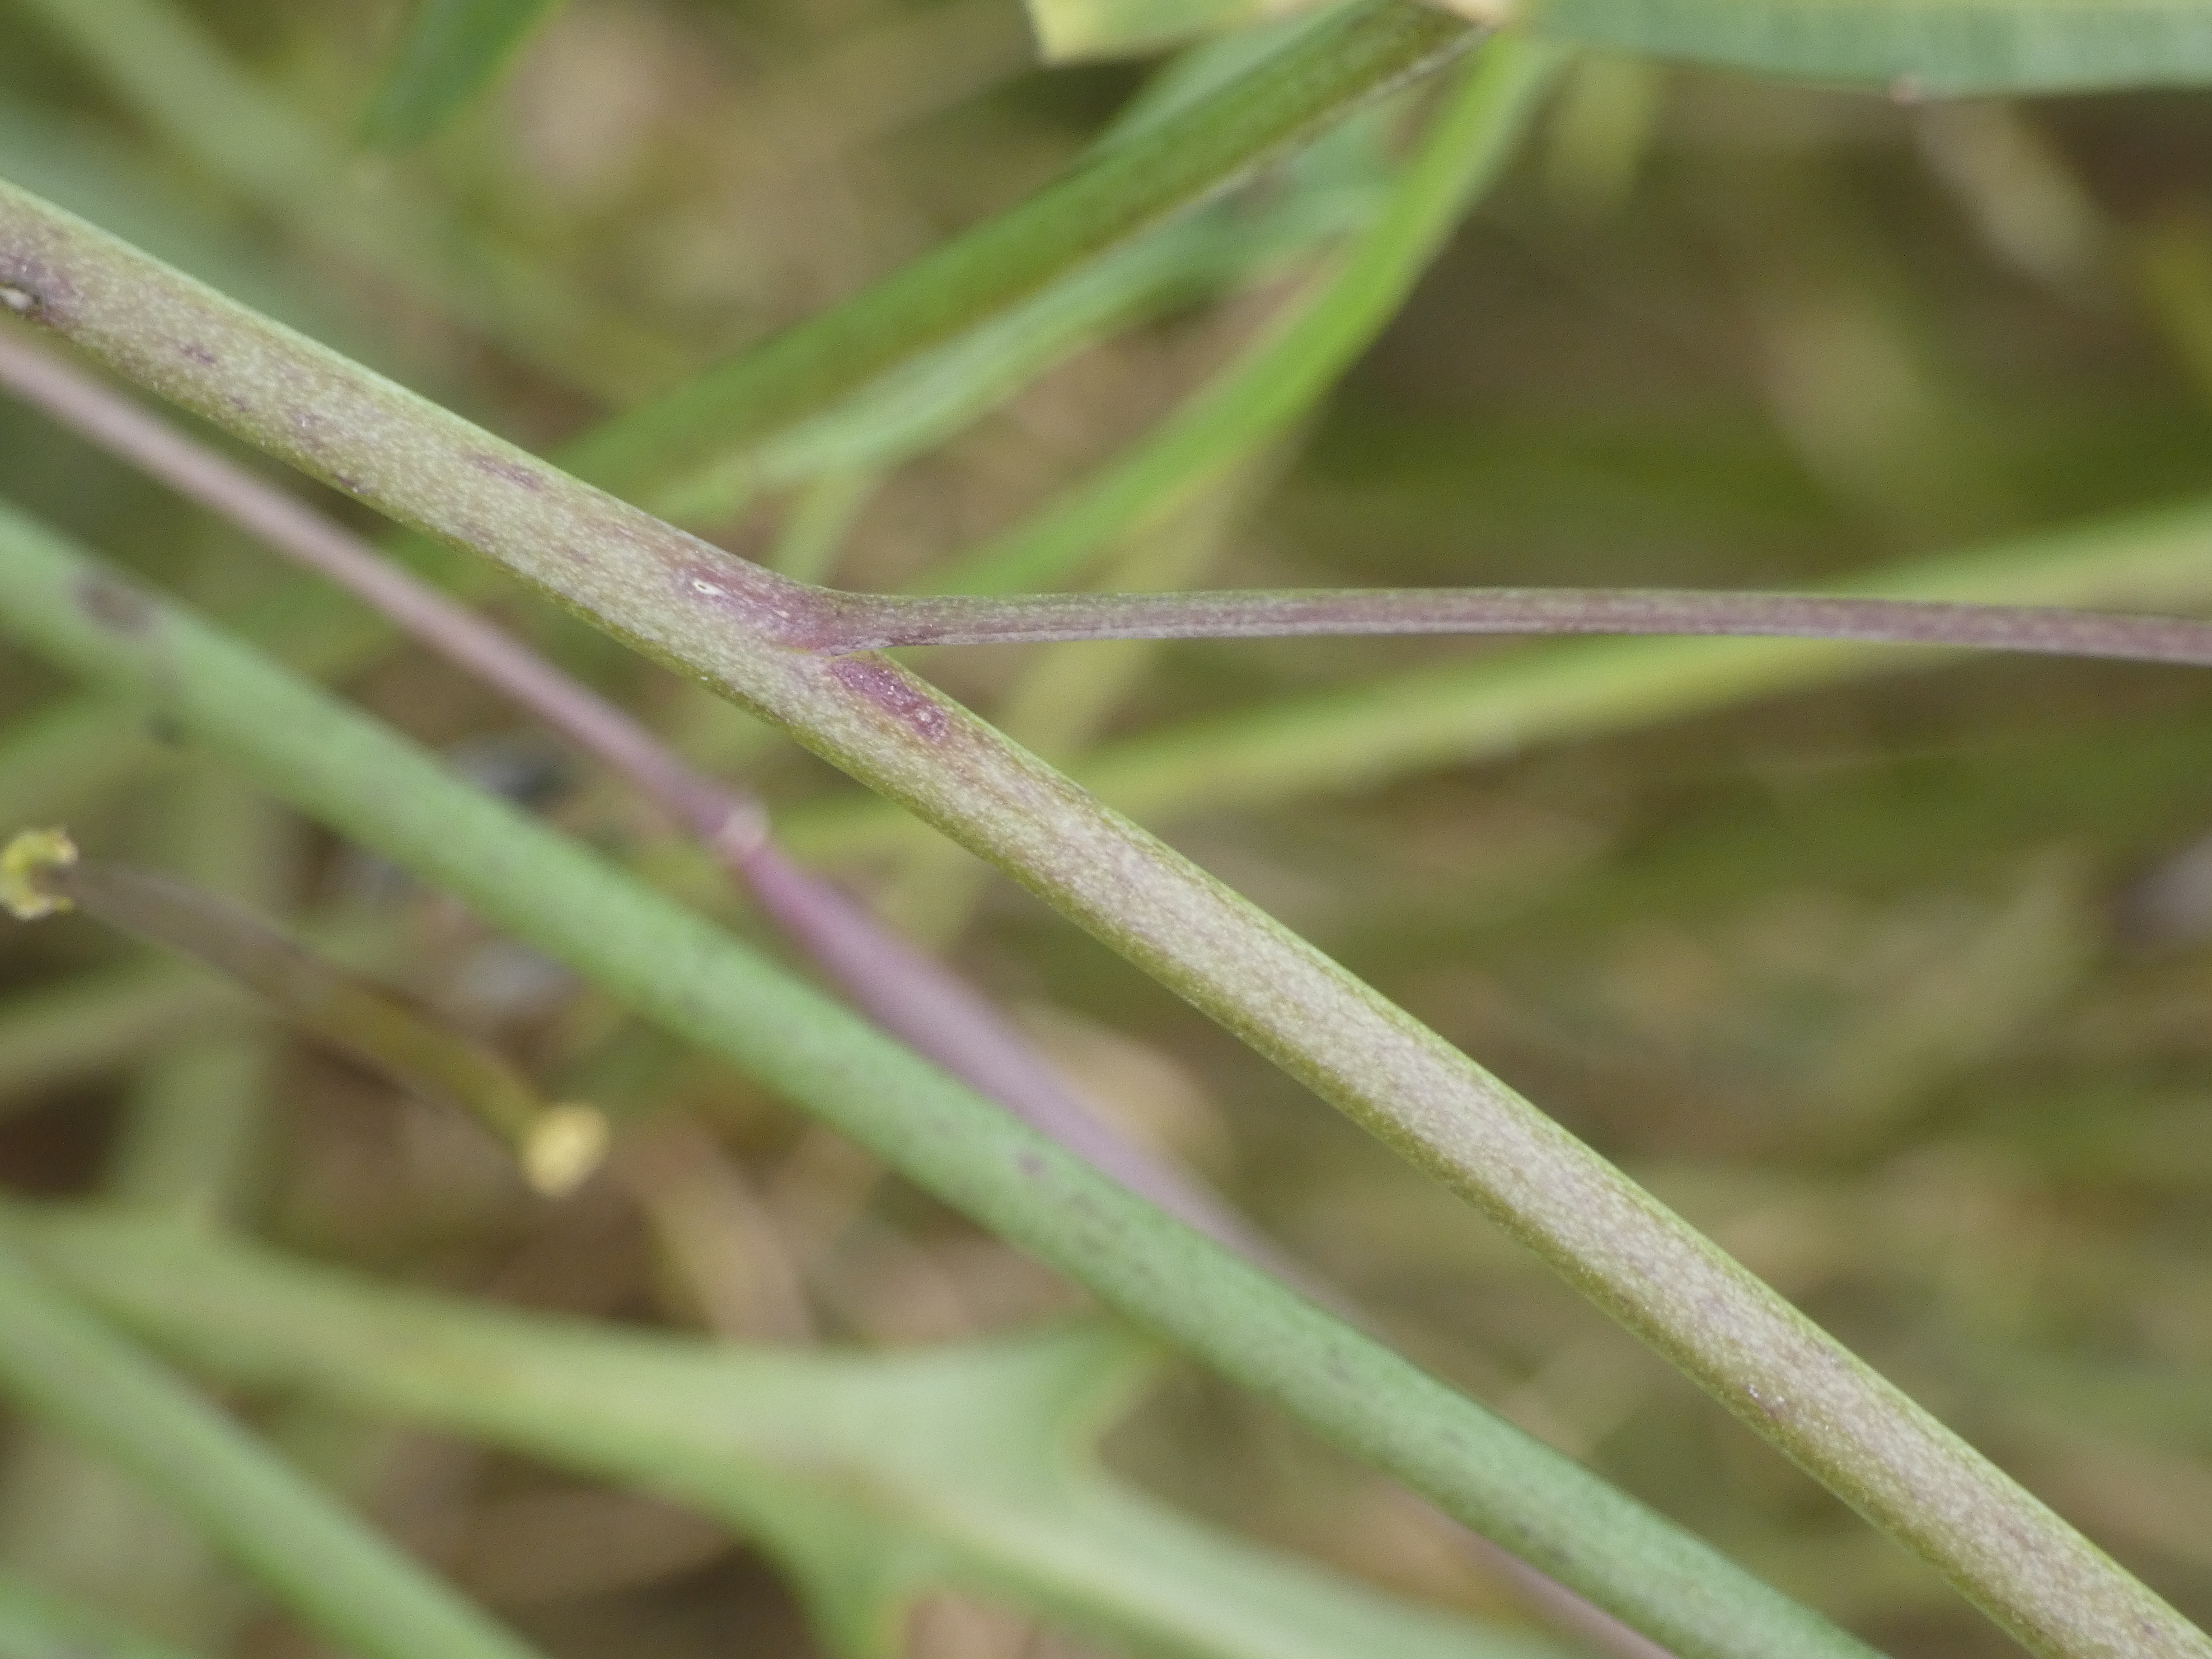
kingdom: Plantae
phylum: Tracheophyta
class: Magnoliopsida
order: Brassicales
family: Brassicaceae
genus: Diplotaxis
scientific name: Diplotaxis tenuifolia
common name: Sandsennep
